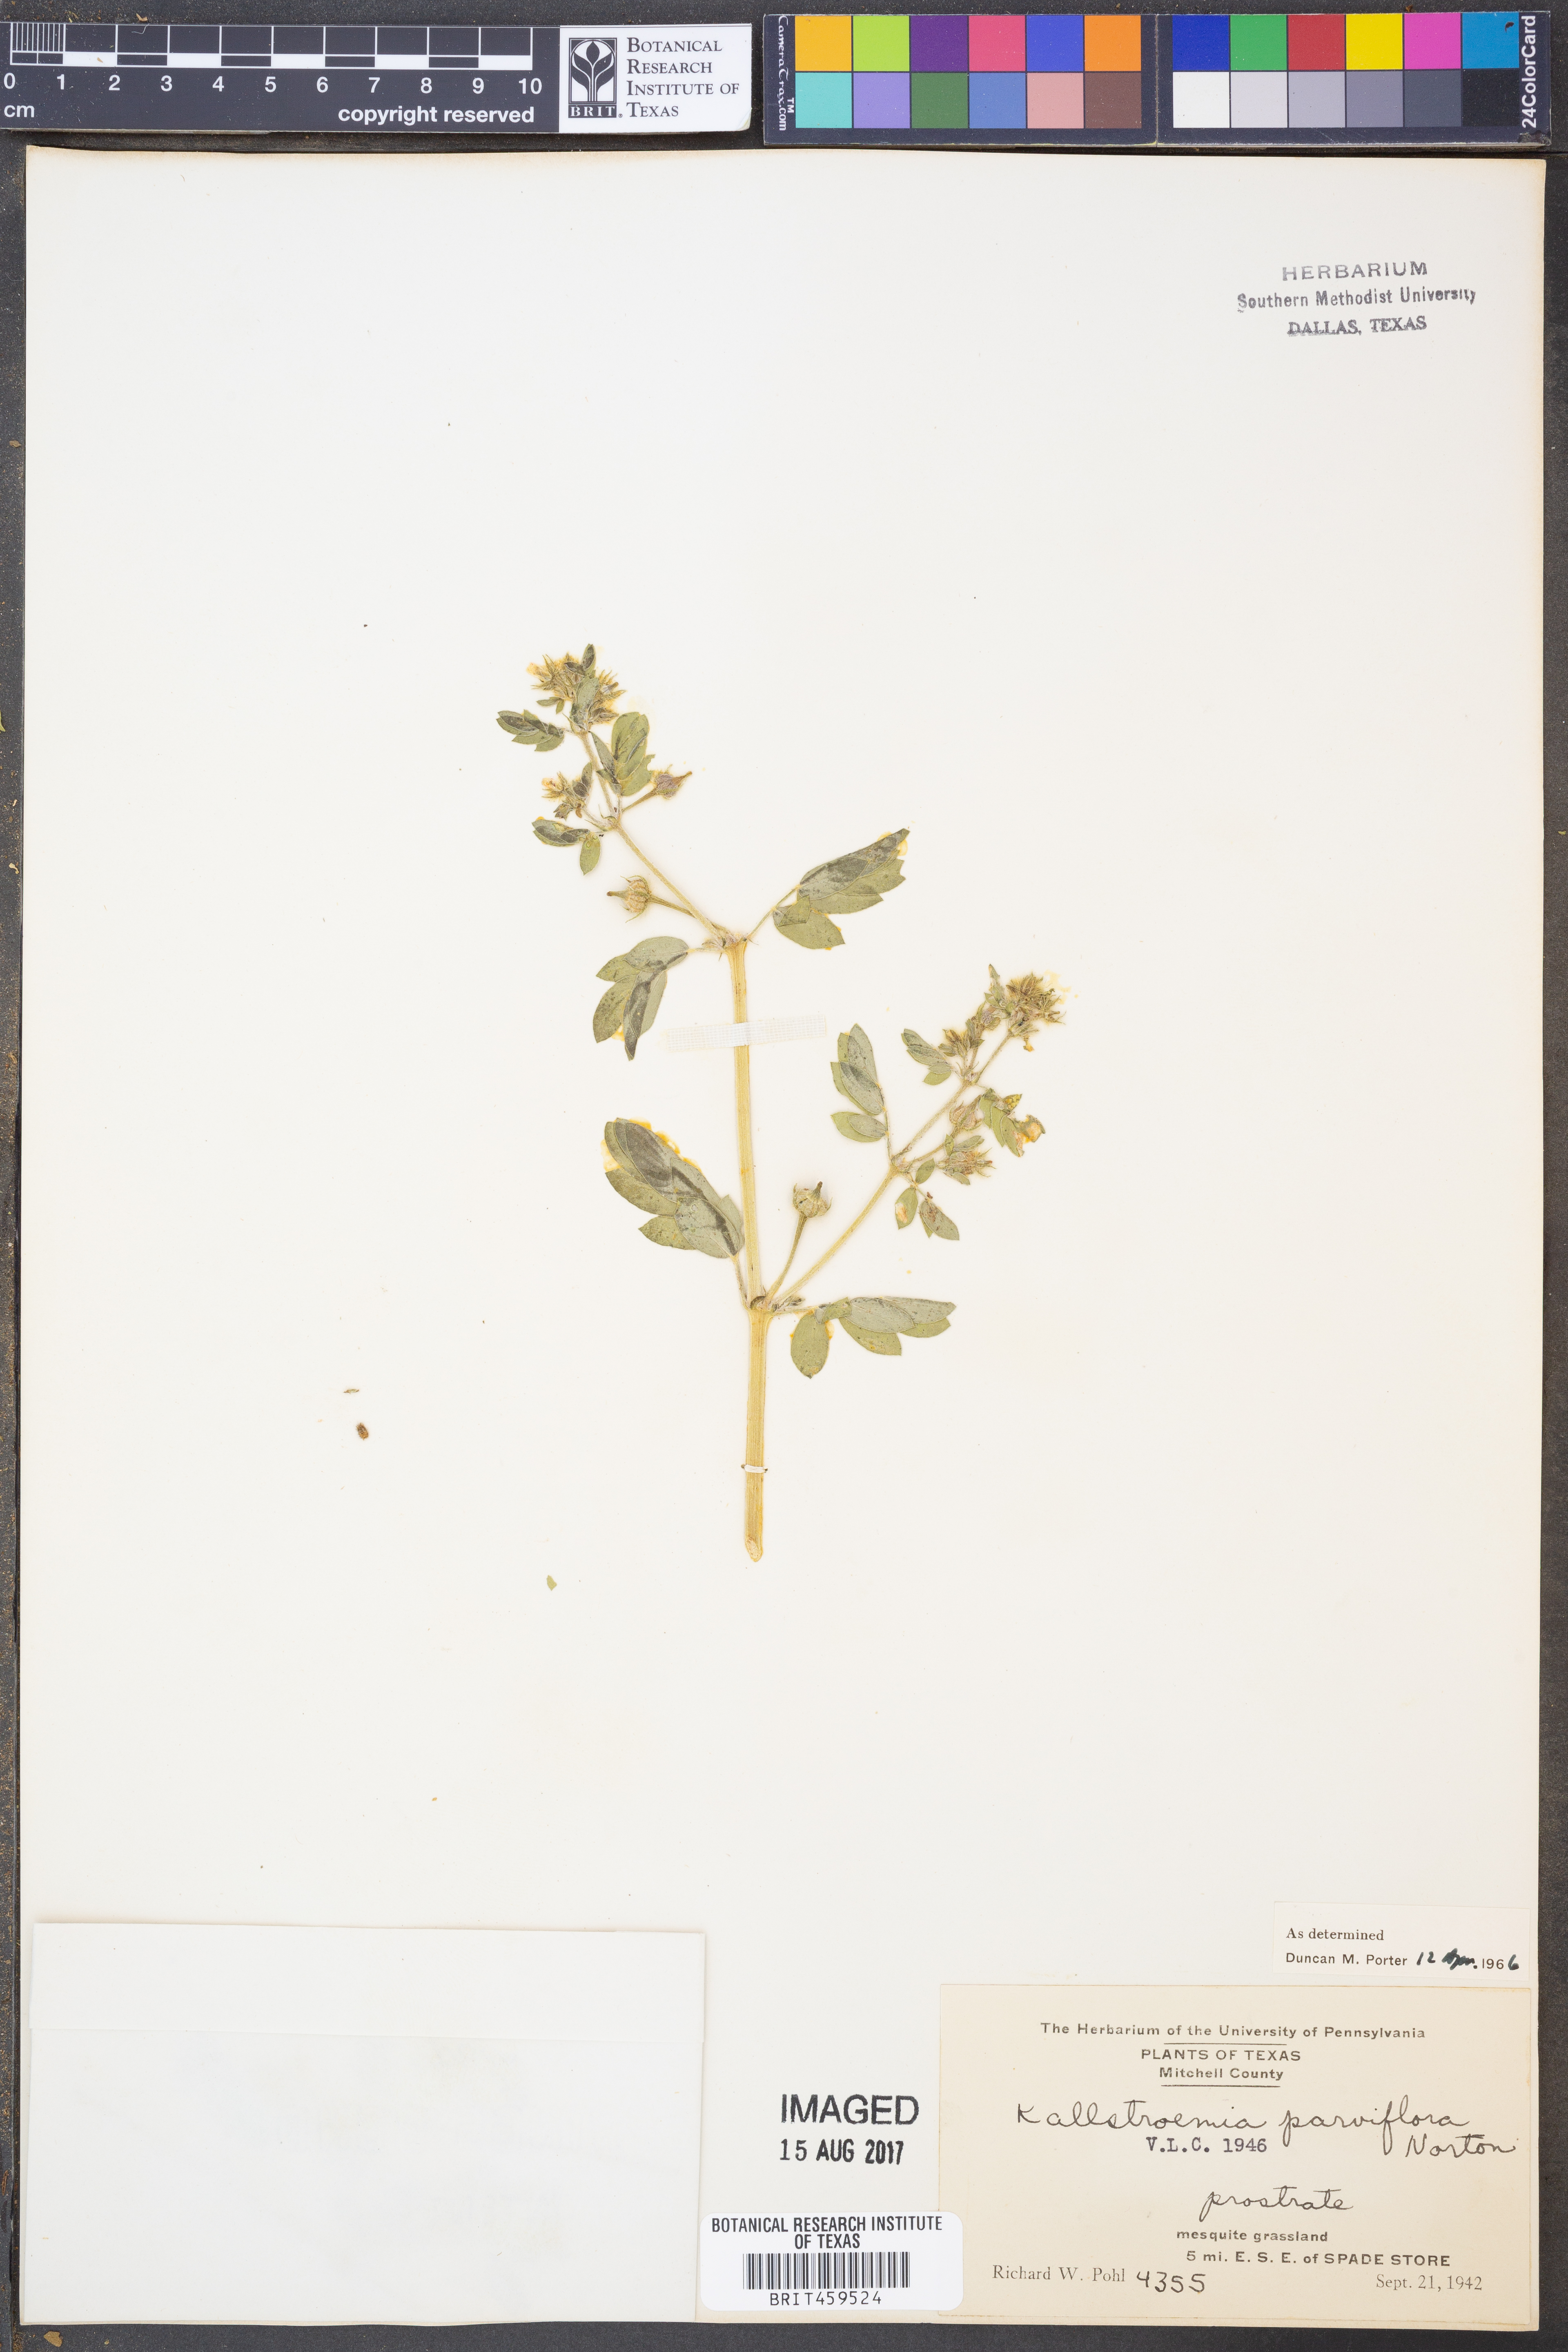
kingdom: Plantae
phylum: Tracheophyta
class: Magnoliopsida
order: Zygophyllales
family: Zygophyllaceae
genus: Kallstroemia
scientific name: Kallstroemia parviflora
